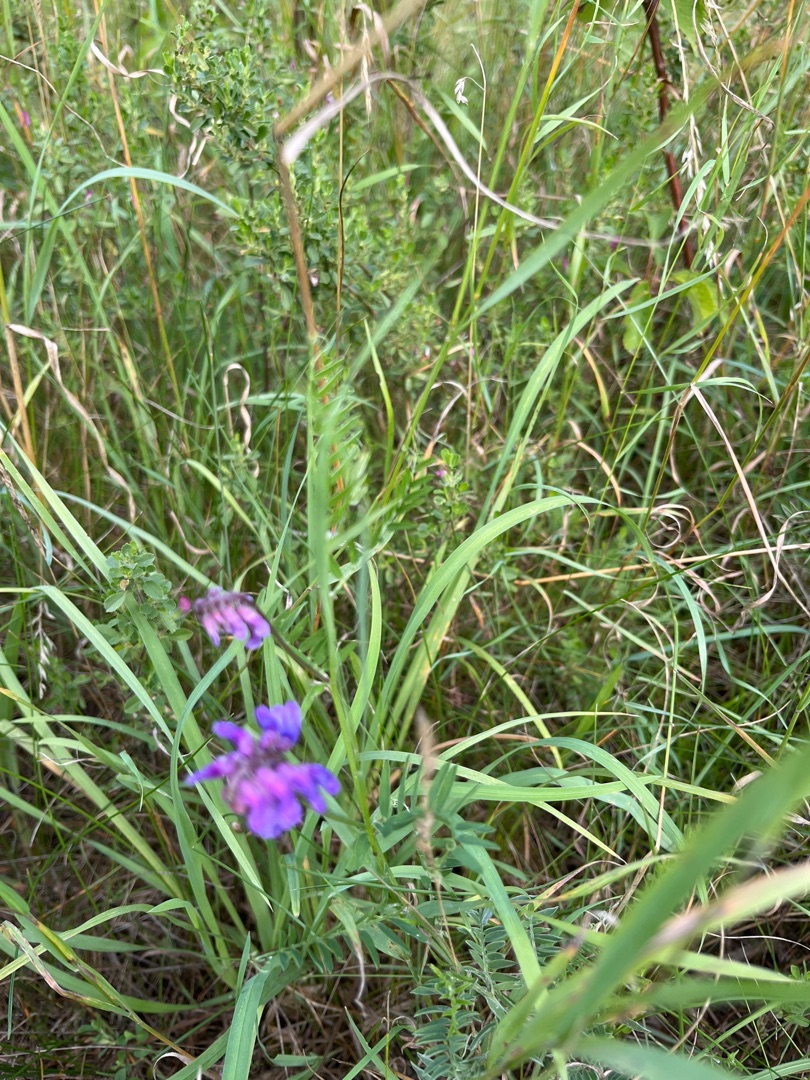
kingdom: Plantae
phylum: Tracheophyta
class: Magnoliopsida
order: Fabales
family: Fabaceae
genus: Vicia
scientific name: Vicia cracca
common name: Muse-vikke
